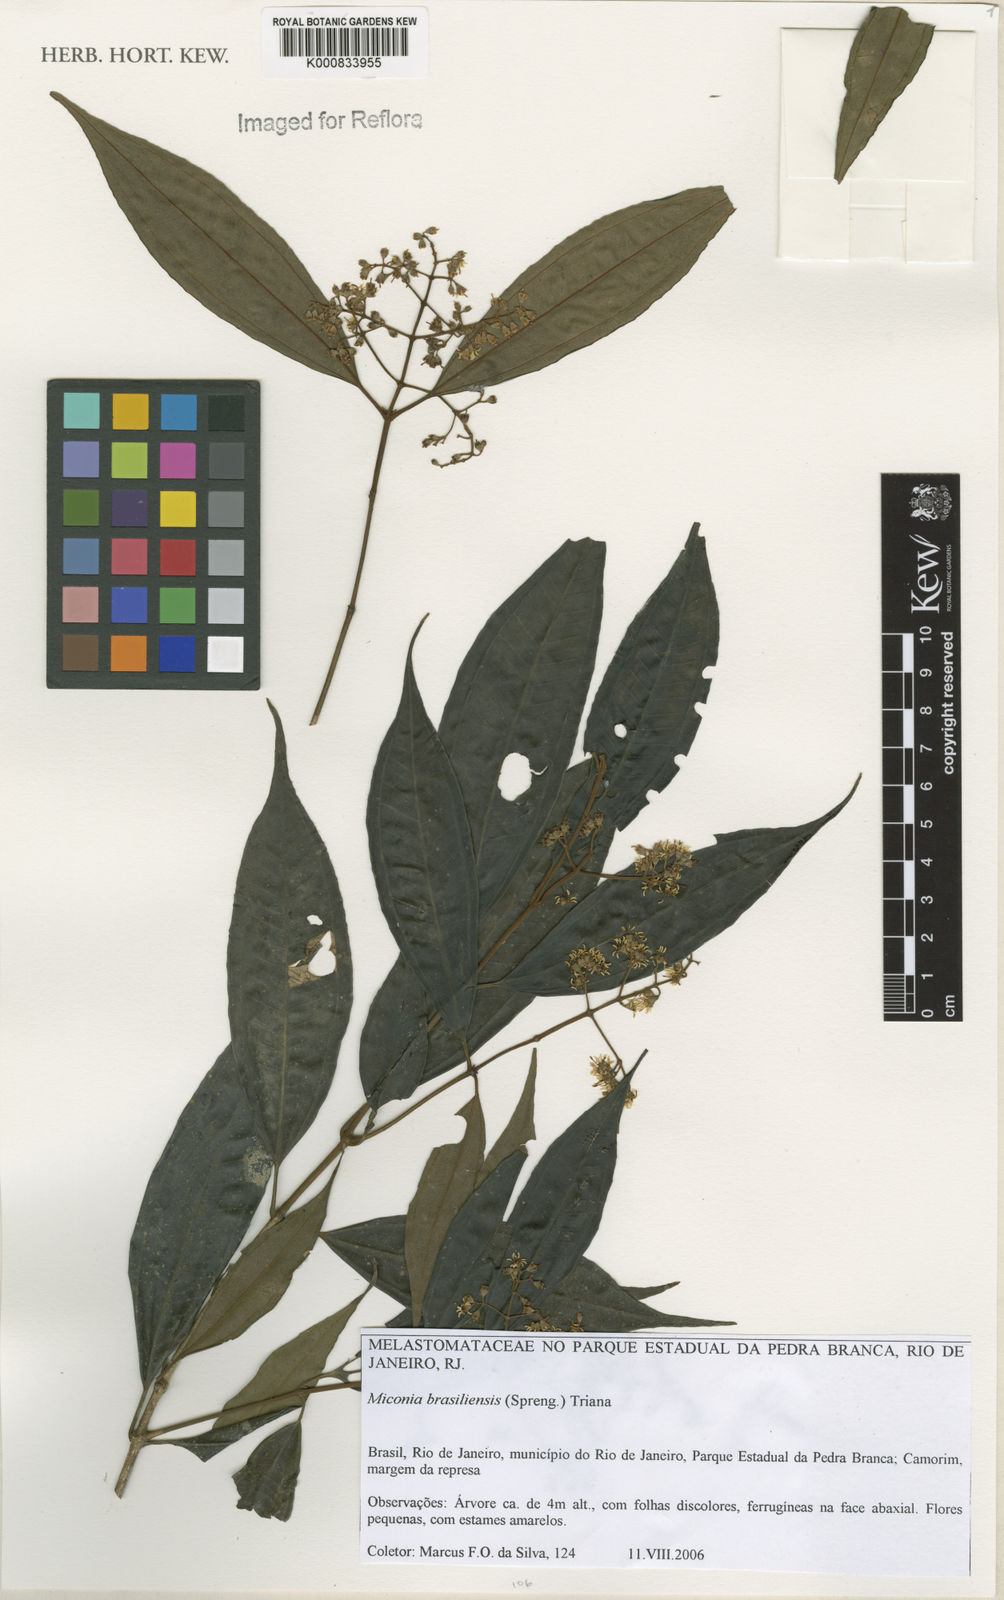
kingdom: Plantae
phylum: Tracheophyta
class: Magnoliopsida
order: Myrtales
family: Melastomataceae
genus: Miconia
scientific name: Miconia brasiliensis
